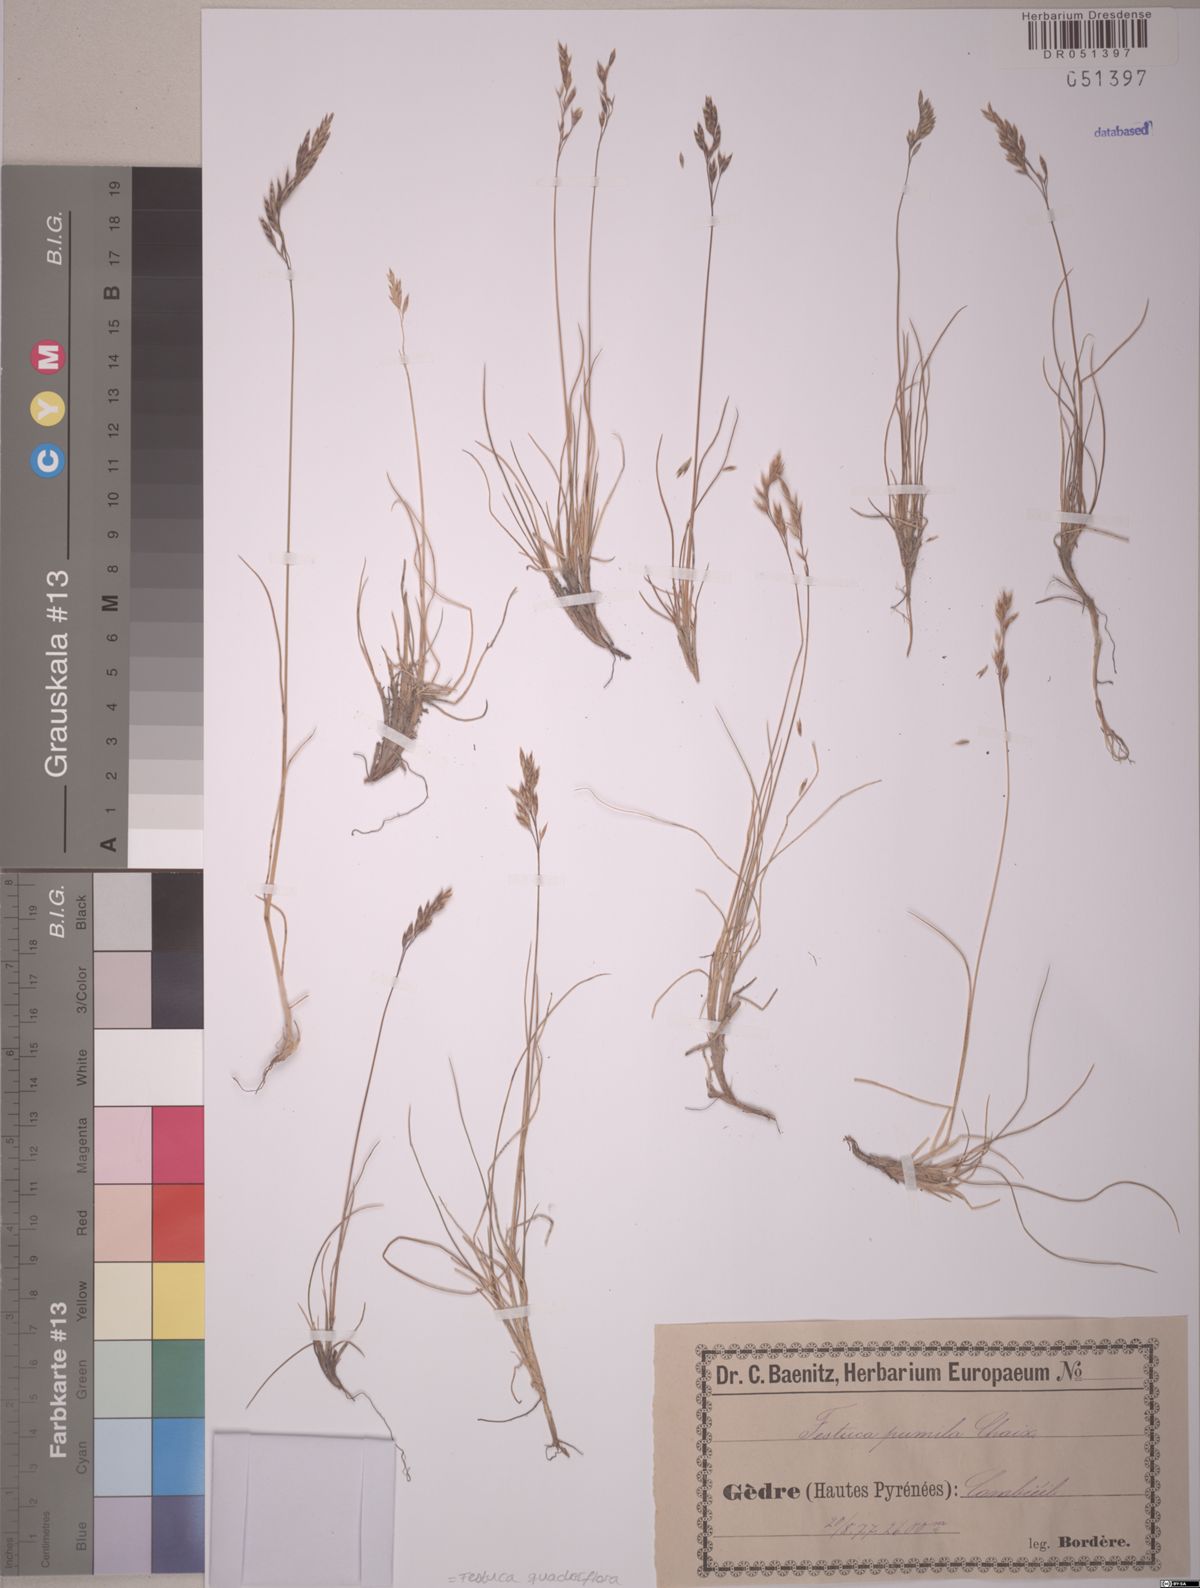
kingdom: Plantae
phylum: Tracheophyta
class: Liliopsida
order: Poales
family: Poaceae
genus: Festuca
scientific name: Festuca quadriflora
